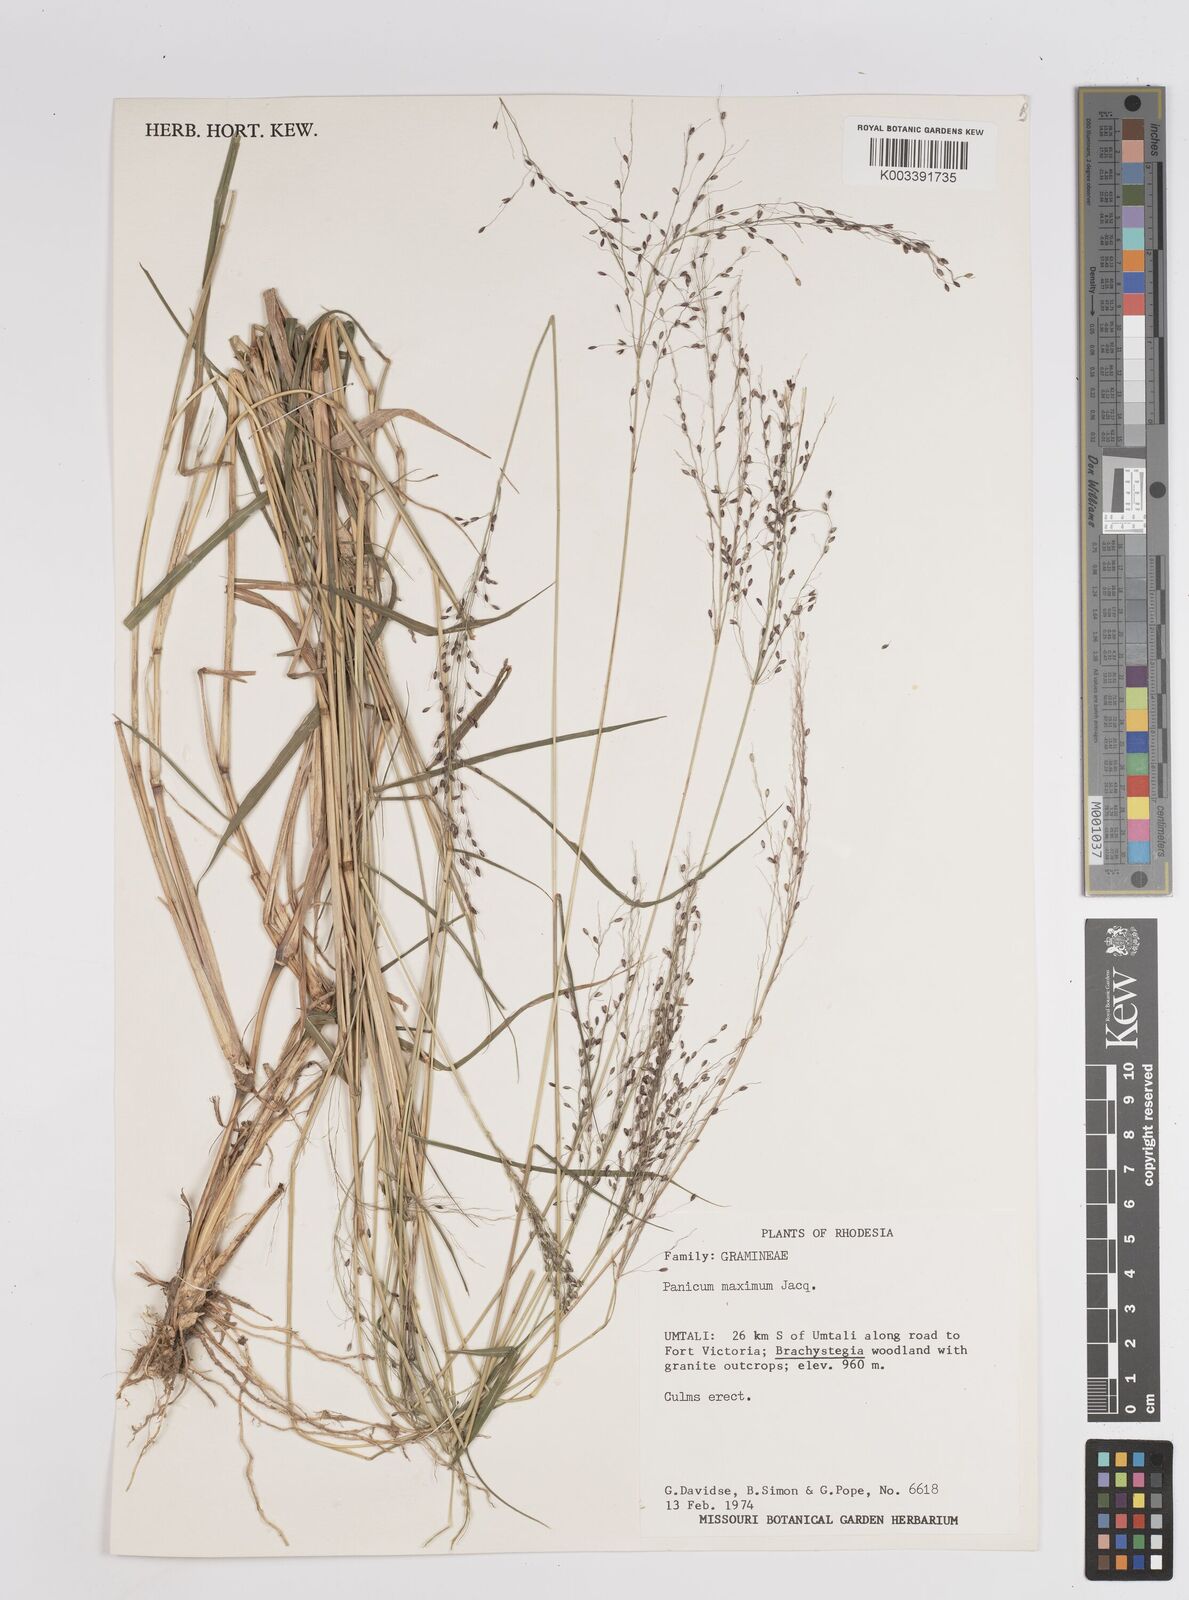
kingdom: Plantae
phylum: Tracheophyta
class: Liliopsida
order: Poales
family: Poaceae
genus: Megathyrsus
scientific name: Megathyrsus maximus
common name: Guineagrass
